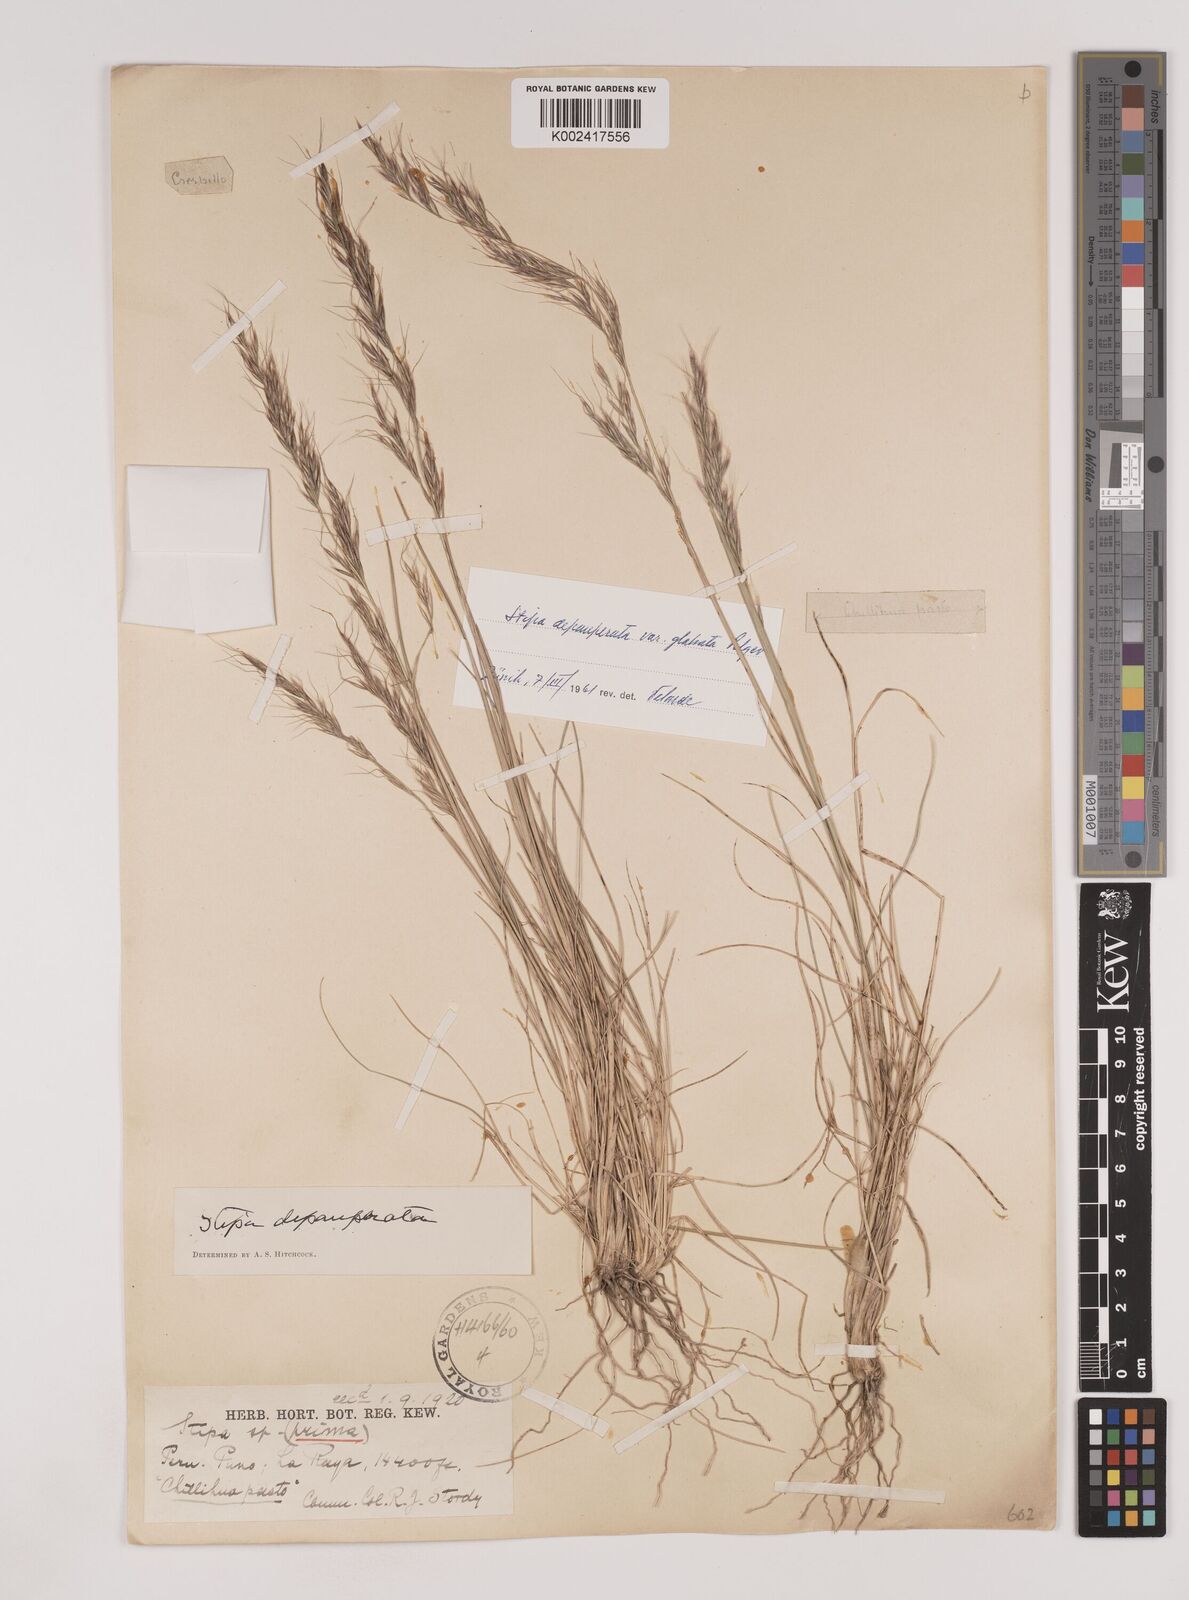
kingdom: Plantae
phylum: Tracheophyta
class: Liliopsida
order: Poales
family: Poaceae
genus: Nassella
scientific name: Nassella rupestris
